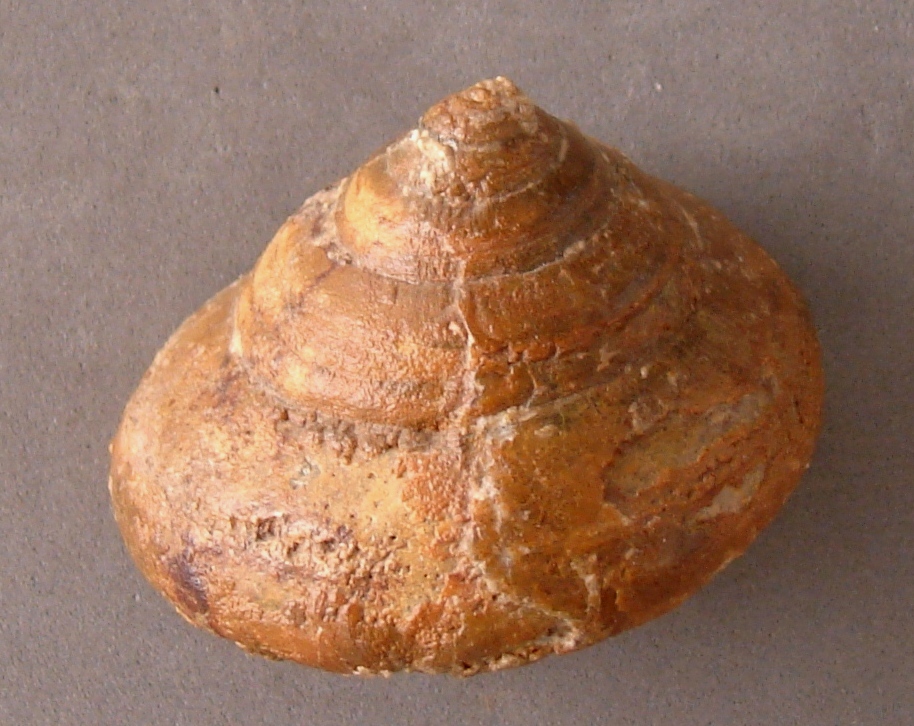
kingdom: Animalia
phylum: Mollusca
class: Gastropoda
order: Pleurotomariida
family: Pleurotomariidae
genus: Leptomaria
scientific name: Leptomaria
